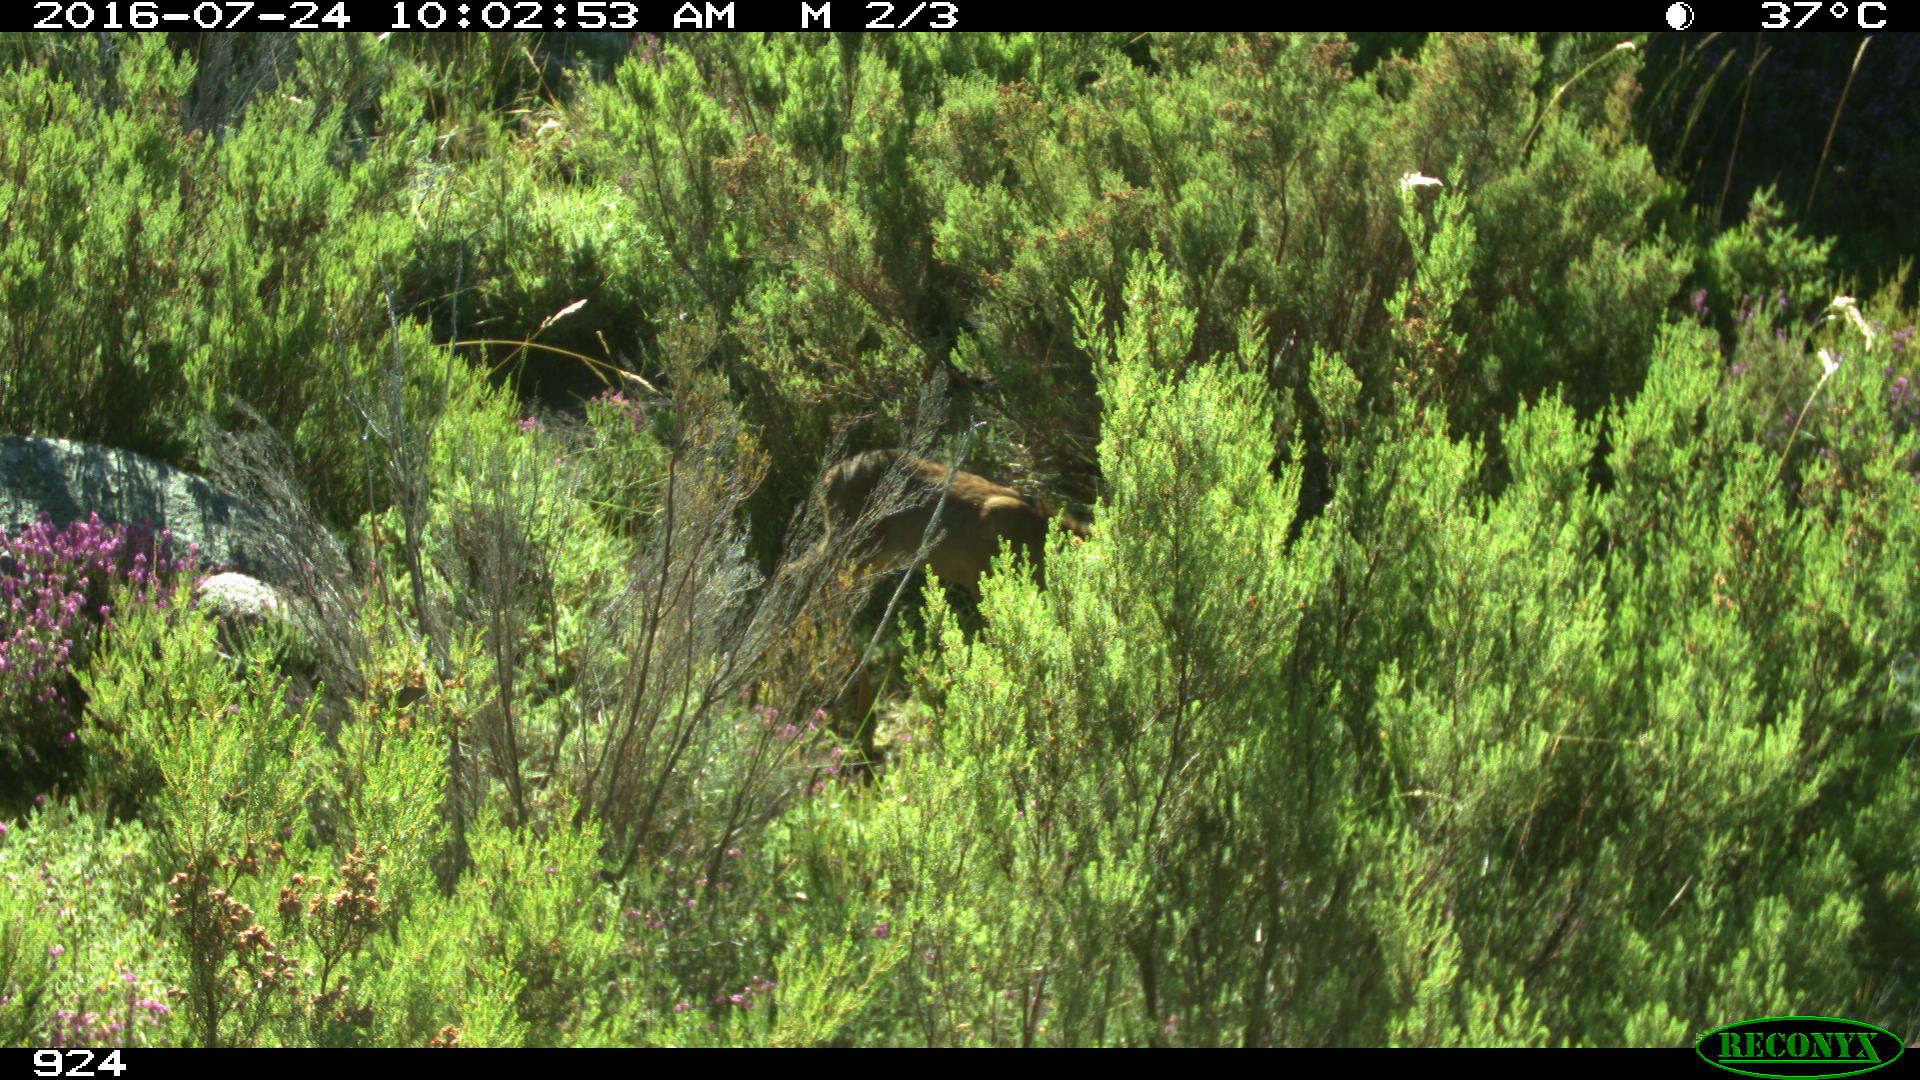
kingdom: Animalia
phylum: Chordata
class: Mammalia
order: Artiodactyla
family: Cervidae
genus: Capreolus
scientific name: Capreolus capreolus
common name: Western roe deer
